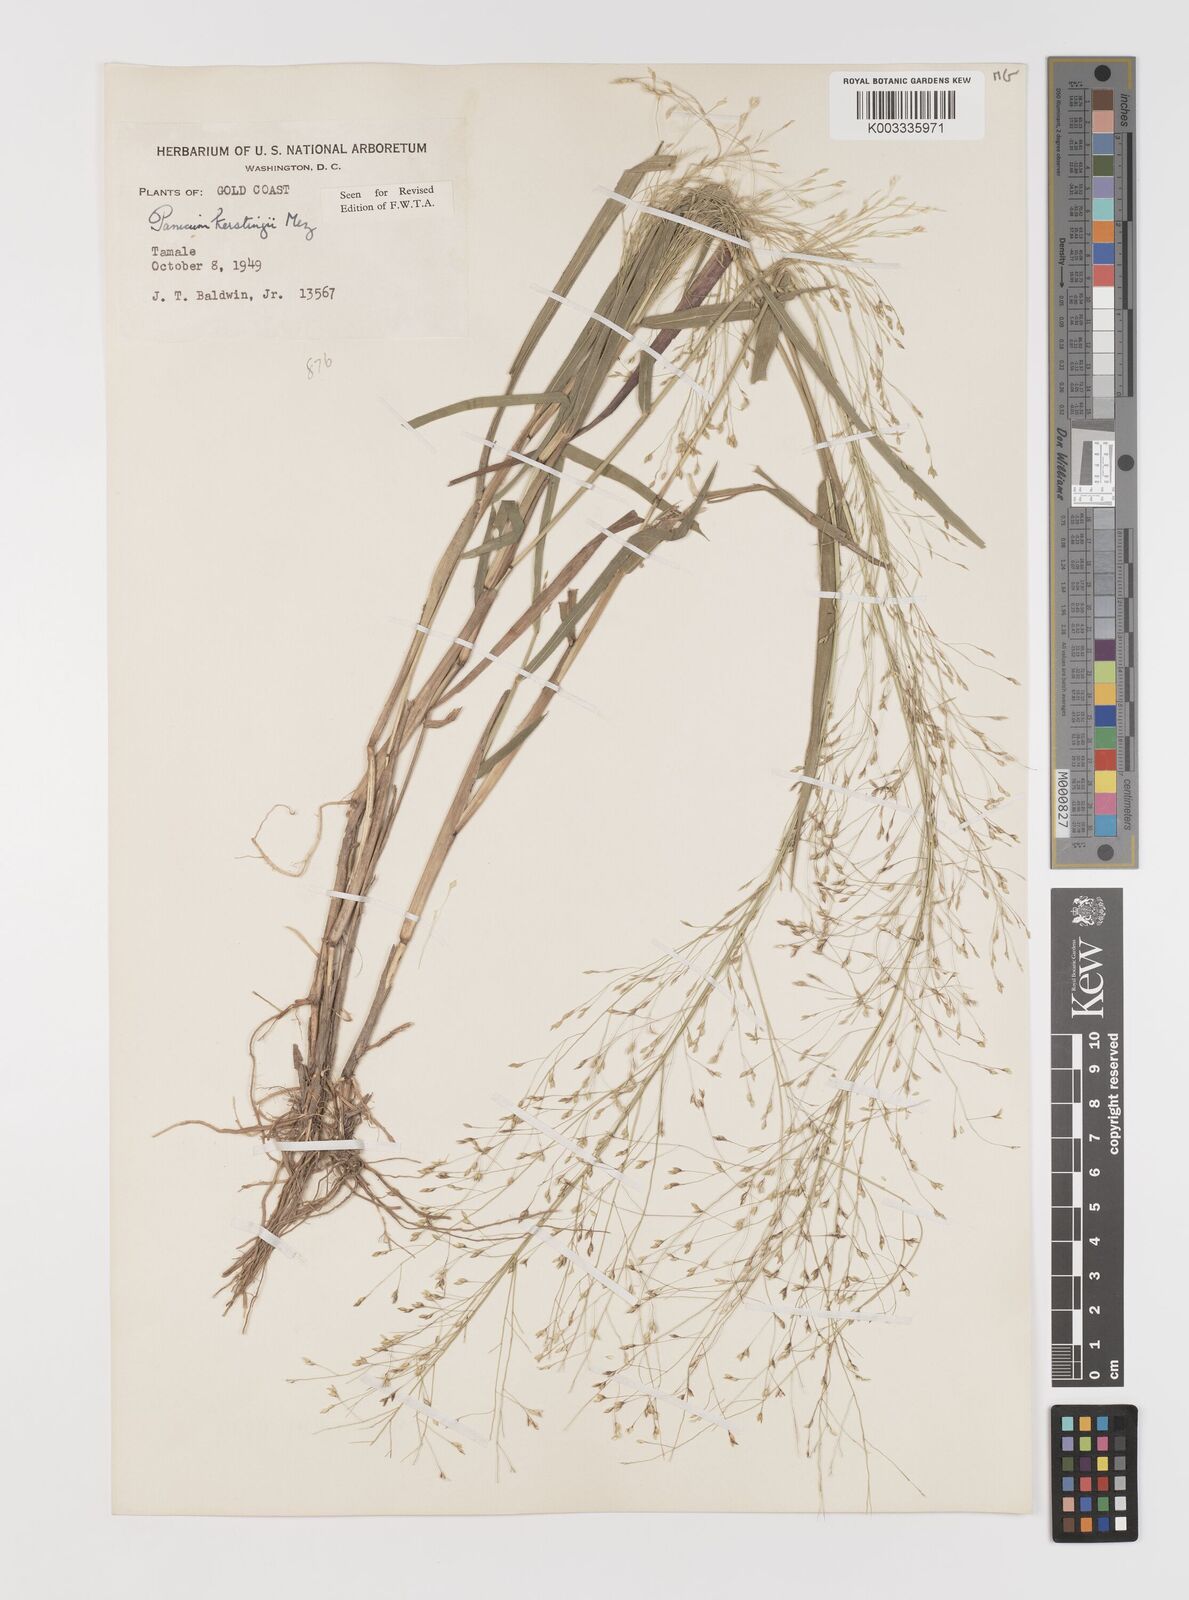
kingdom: Plantae
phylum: Tracheophyta
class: Liliopsida
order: Poales
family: Poaceae
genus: Panicum
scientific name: Panicum pansum
